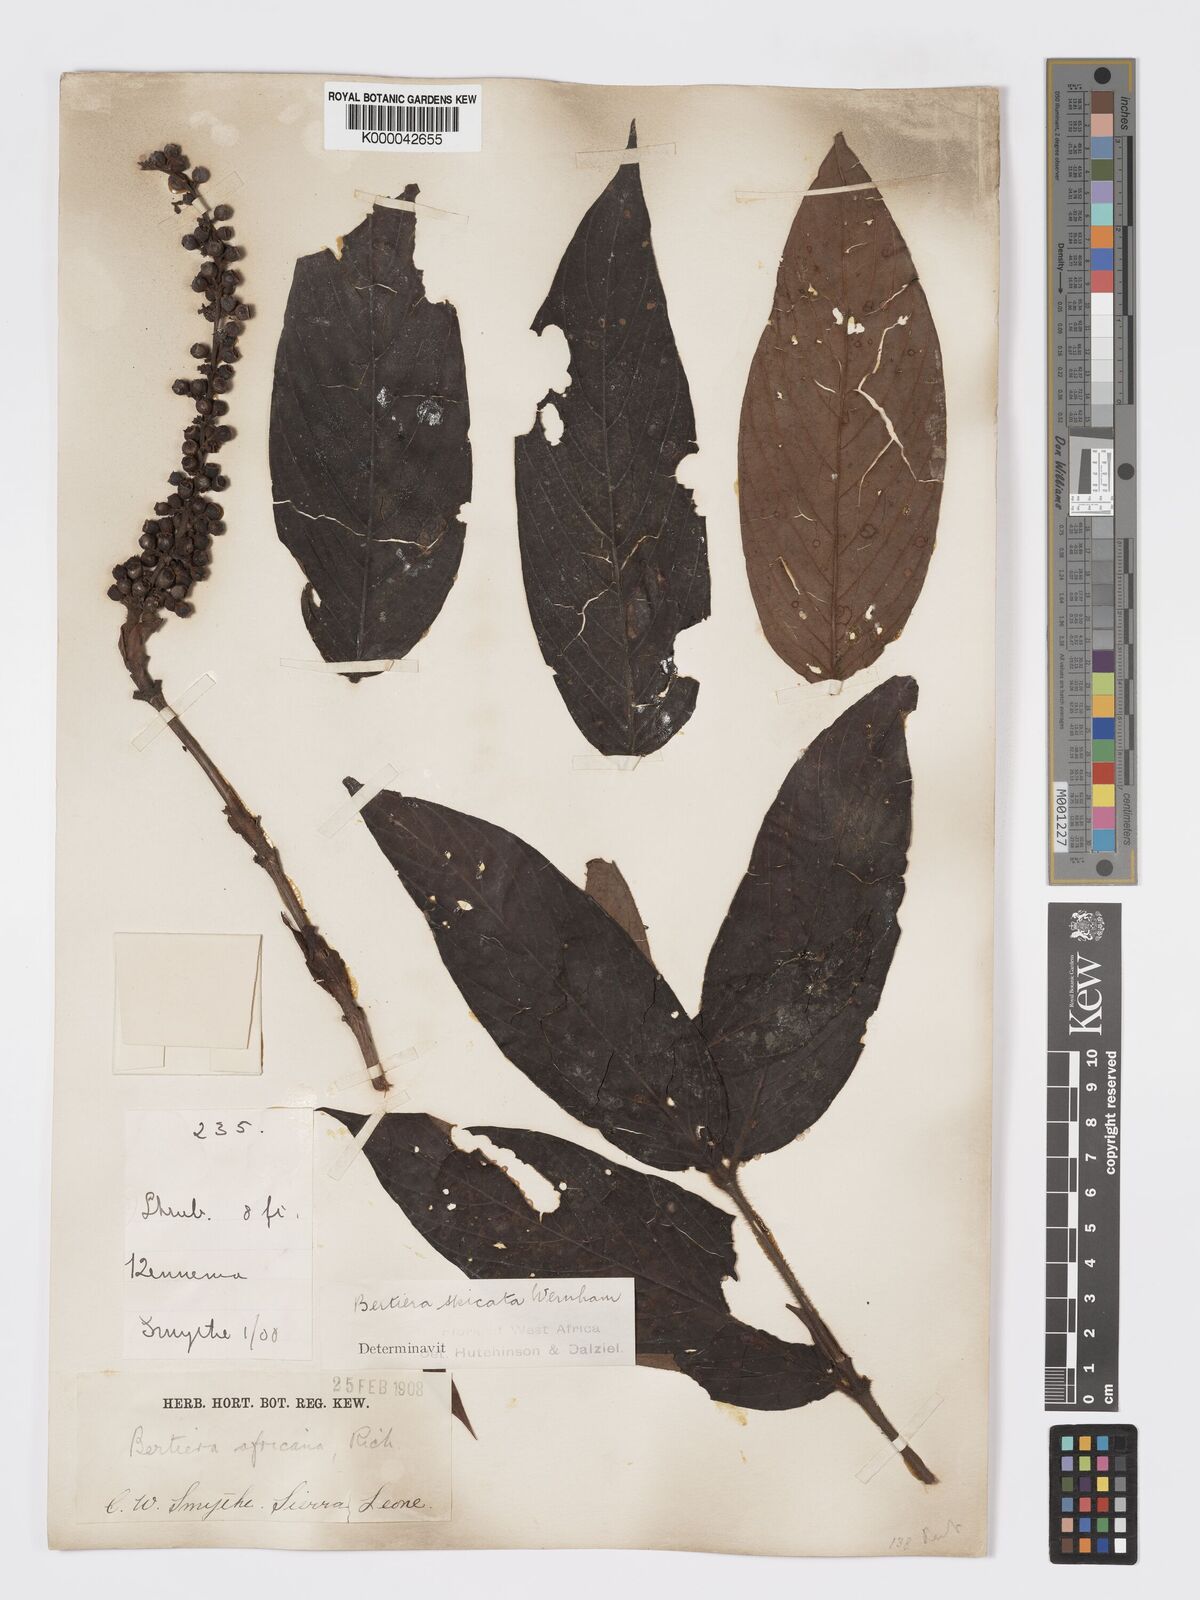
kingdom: Plantae
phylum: Tracheophyta
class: Magnoliopsida
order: Gentianales
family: Rubiaceae
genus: Bertiera
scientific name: Bertiera
